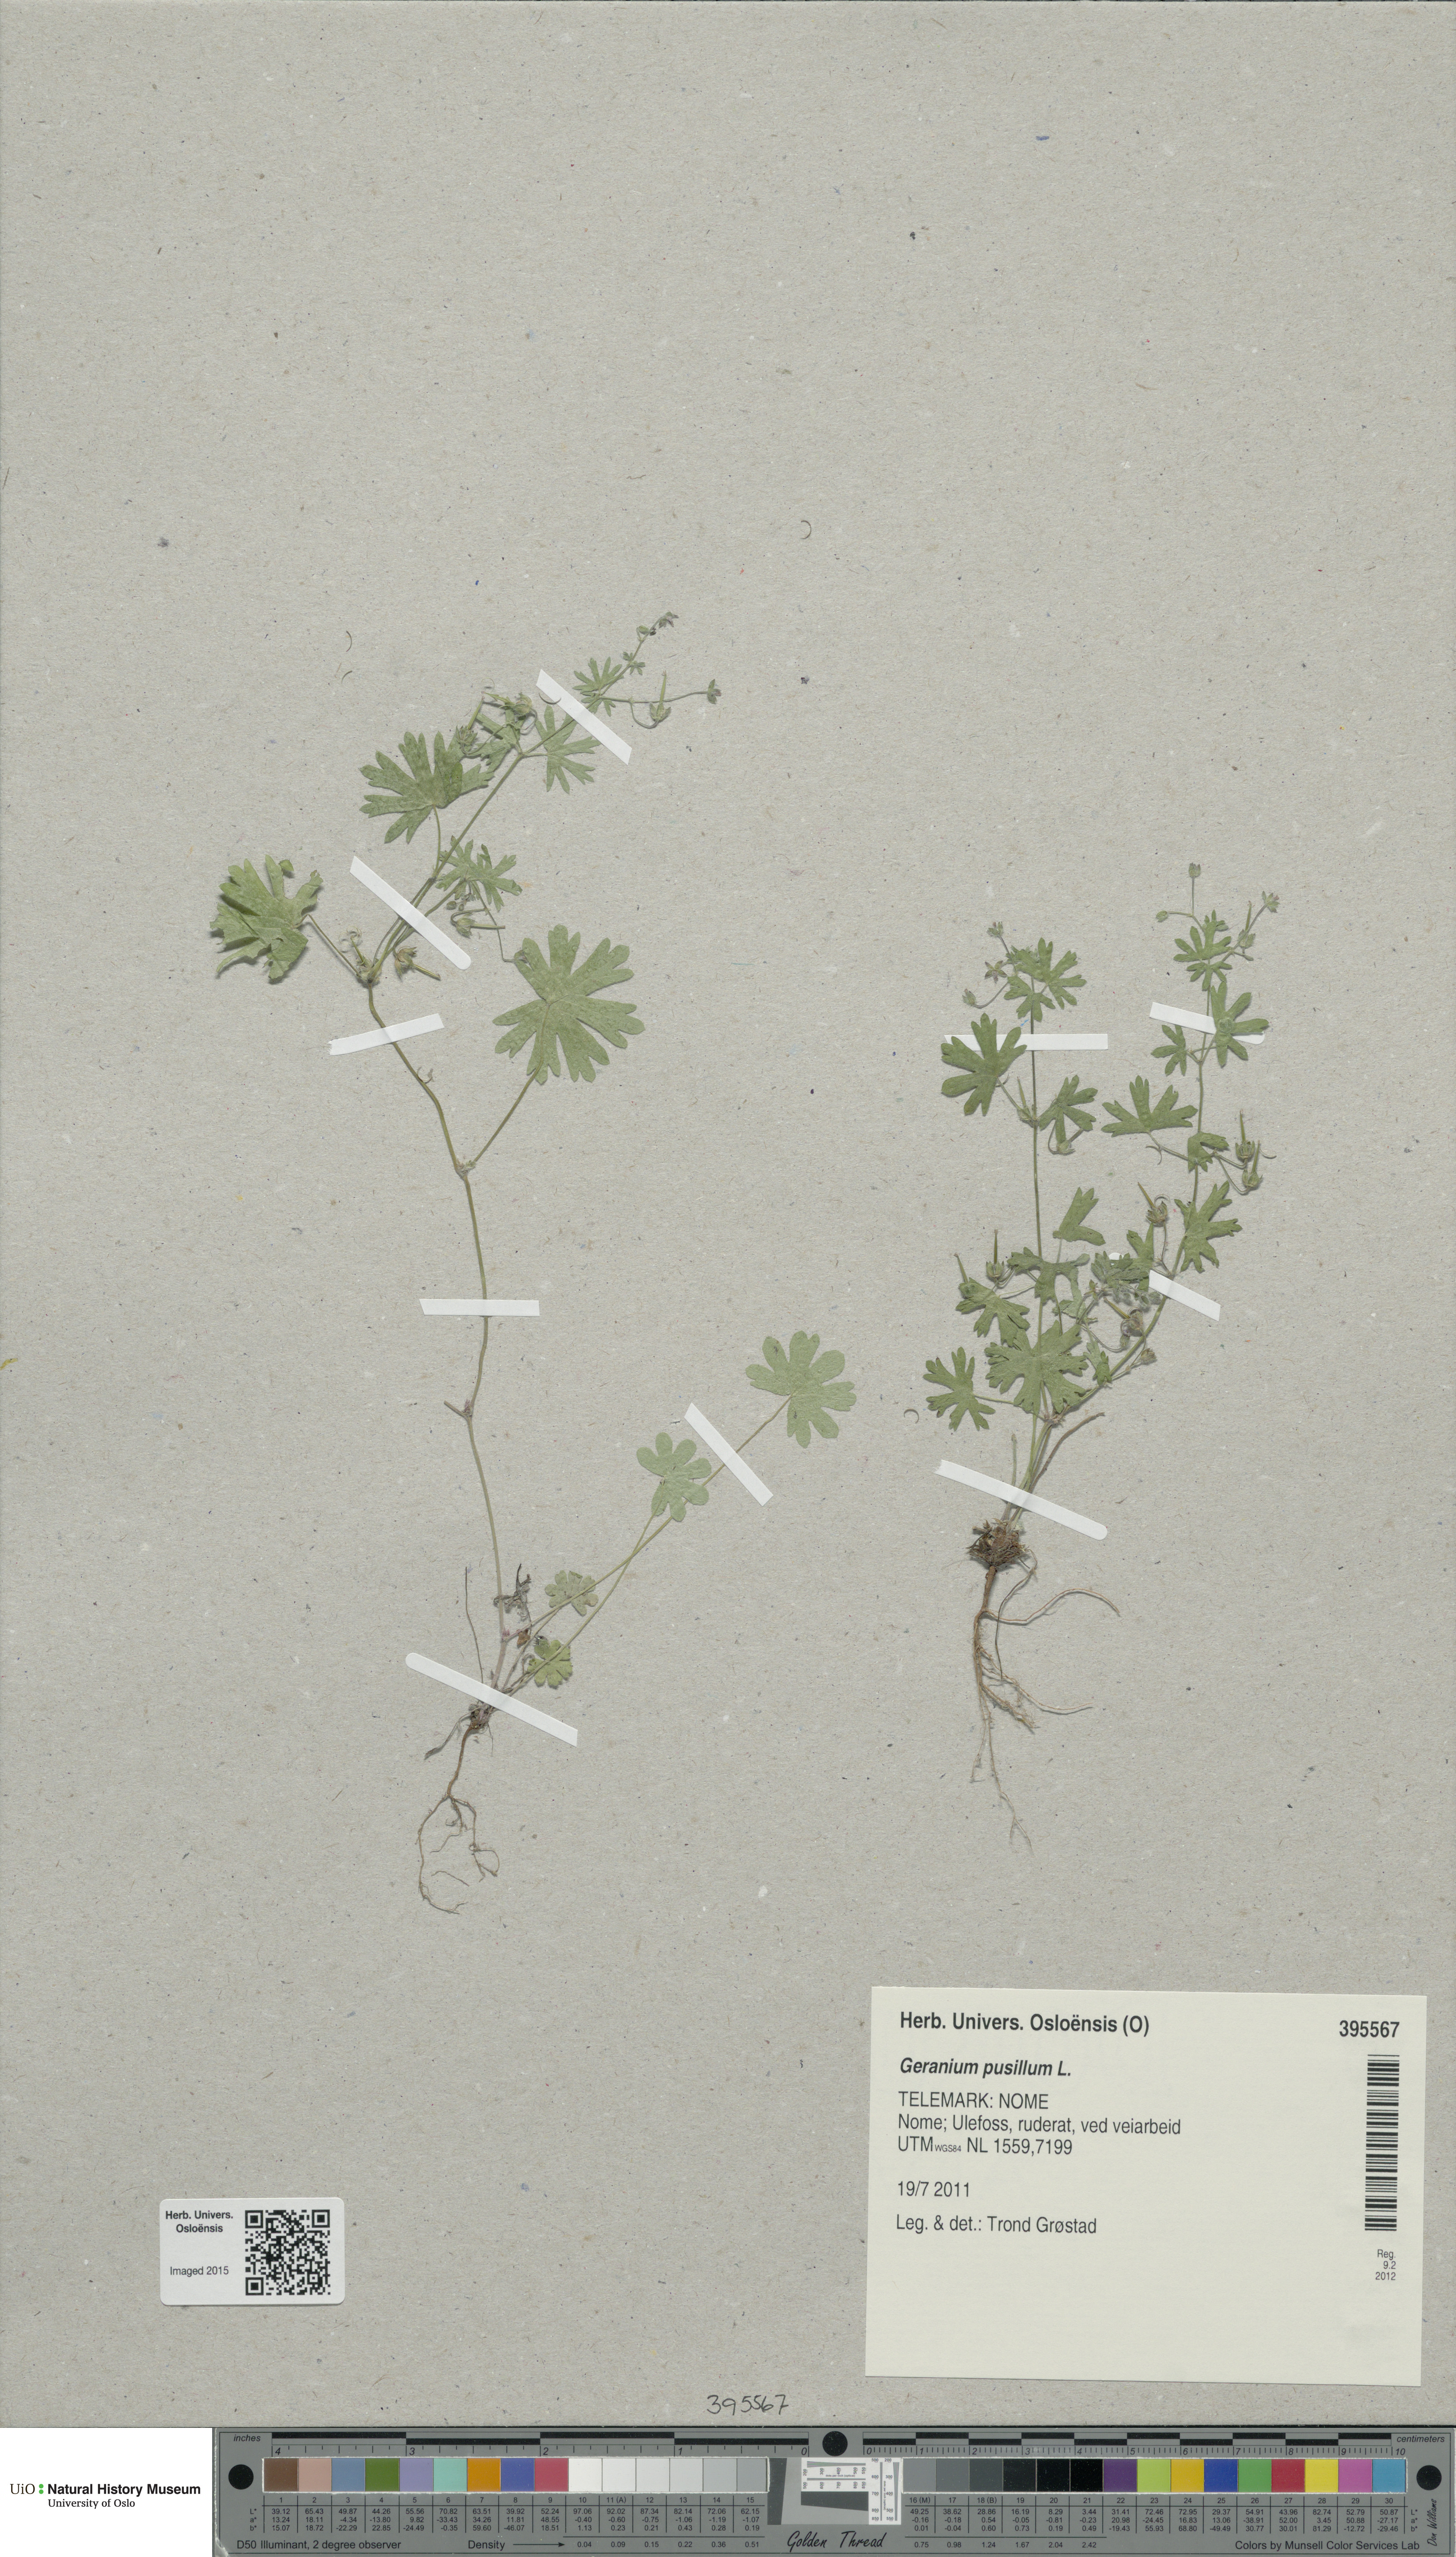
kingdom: Plantae
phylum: Tracheophyta
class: Magnoliopsida
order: Geraniales
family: Geraniaceae
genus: Geranium
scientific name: Geranium pusillum
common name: Small geranium
